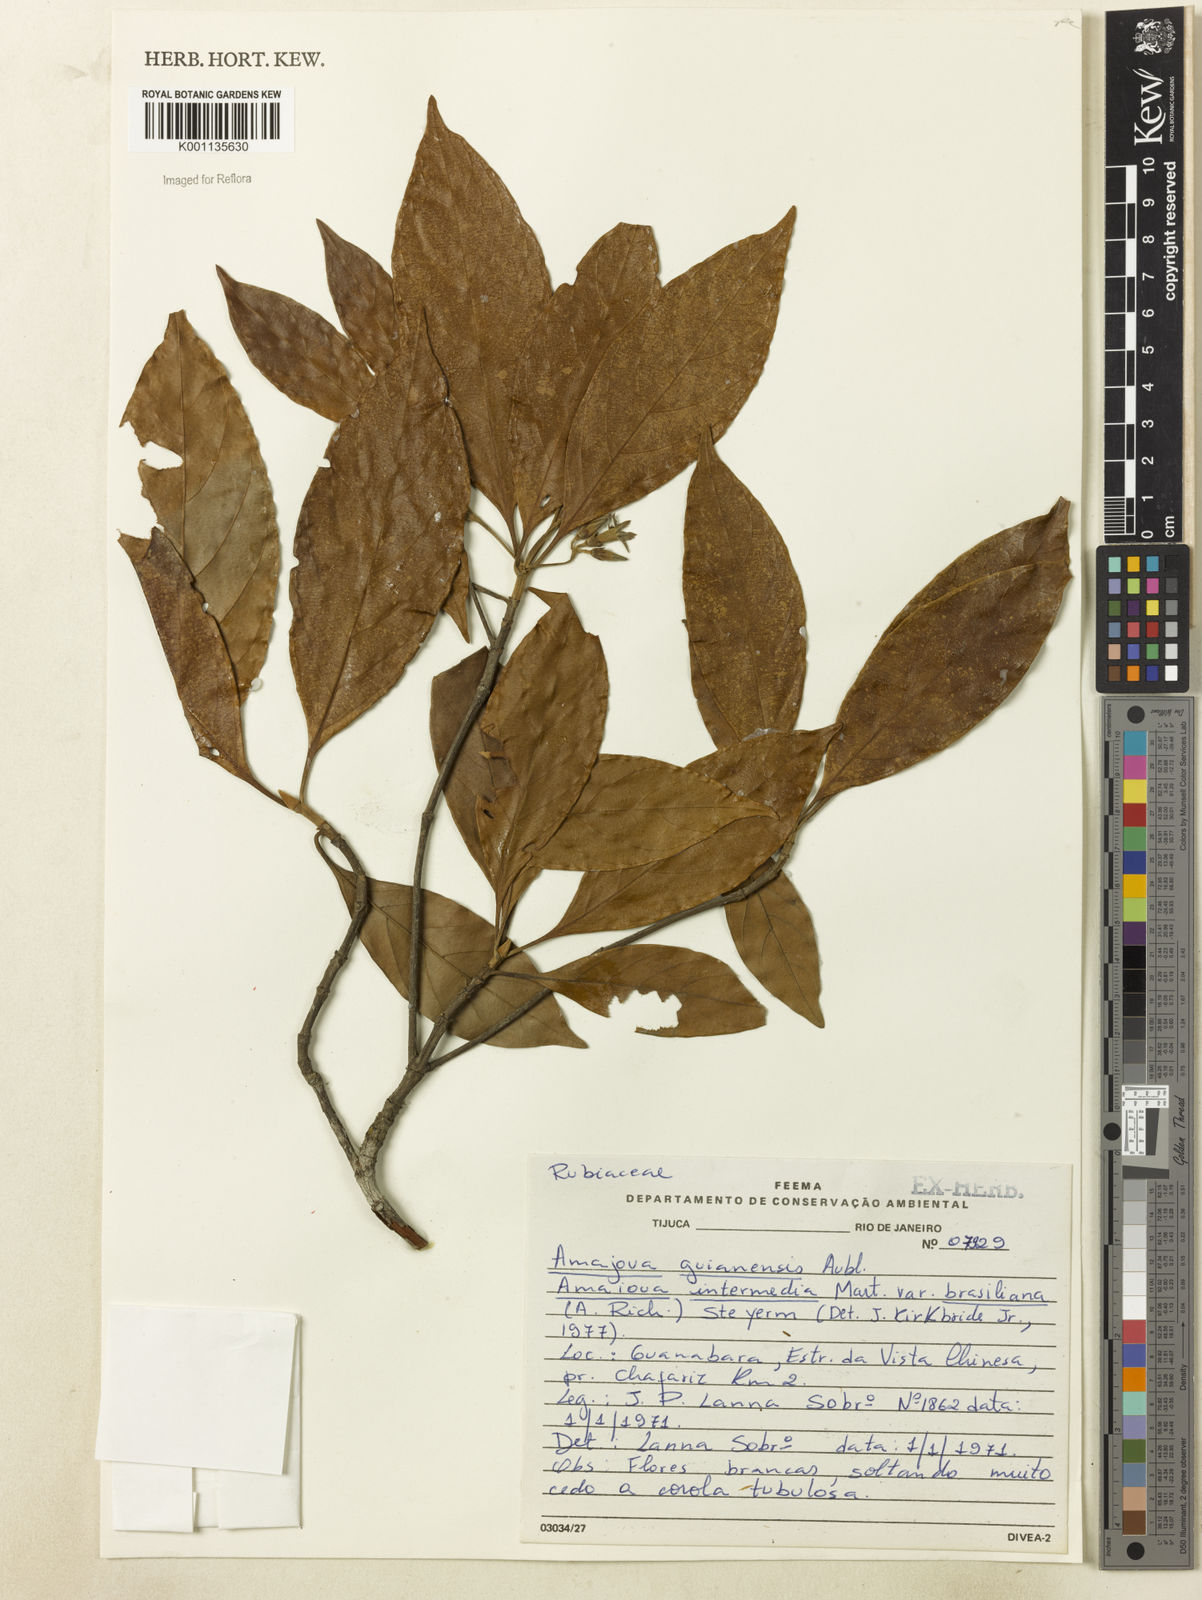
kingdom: Plantae
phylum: Tracheophyta
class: Magnoliopsida
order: Gentianales
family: Rubiaceae
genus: Amaioua
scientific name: Amaioua intermedia
